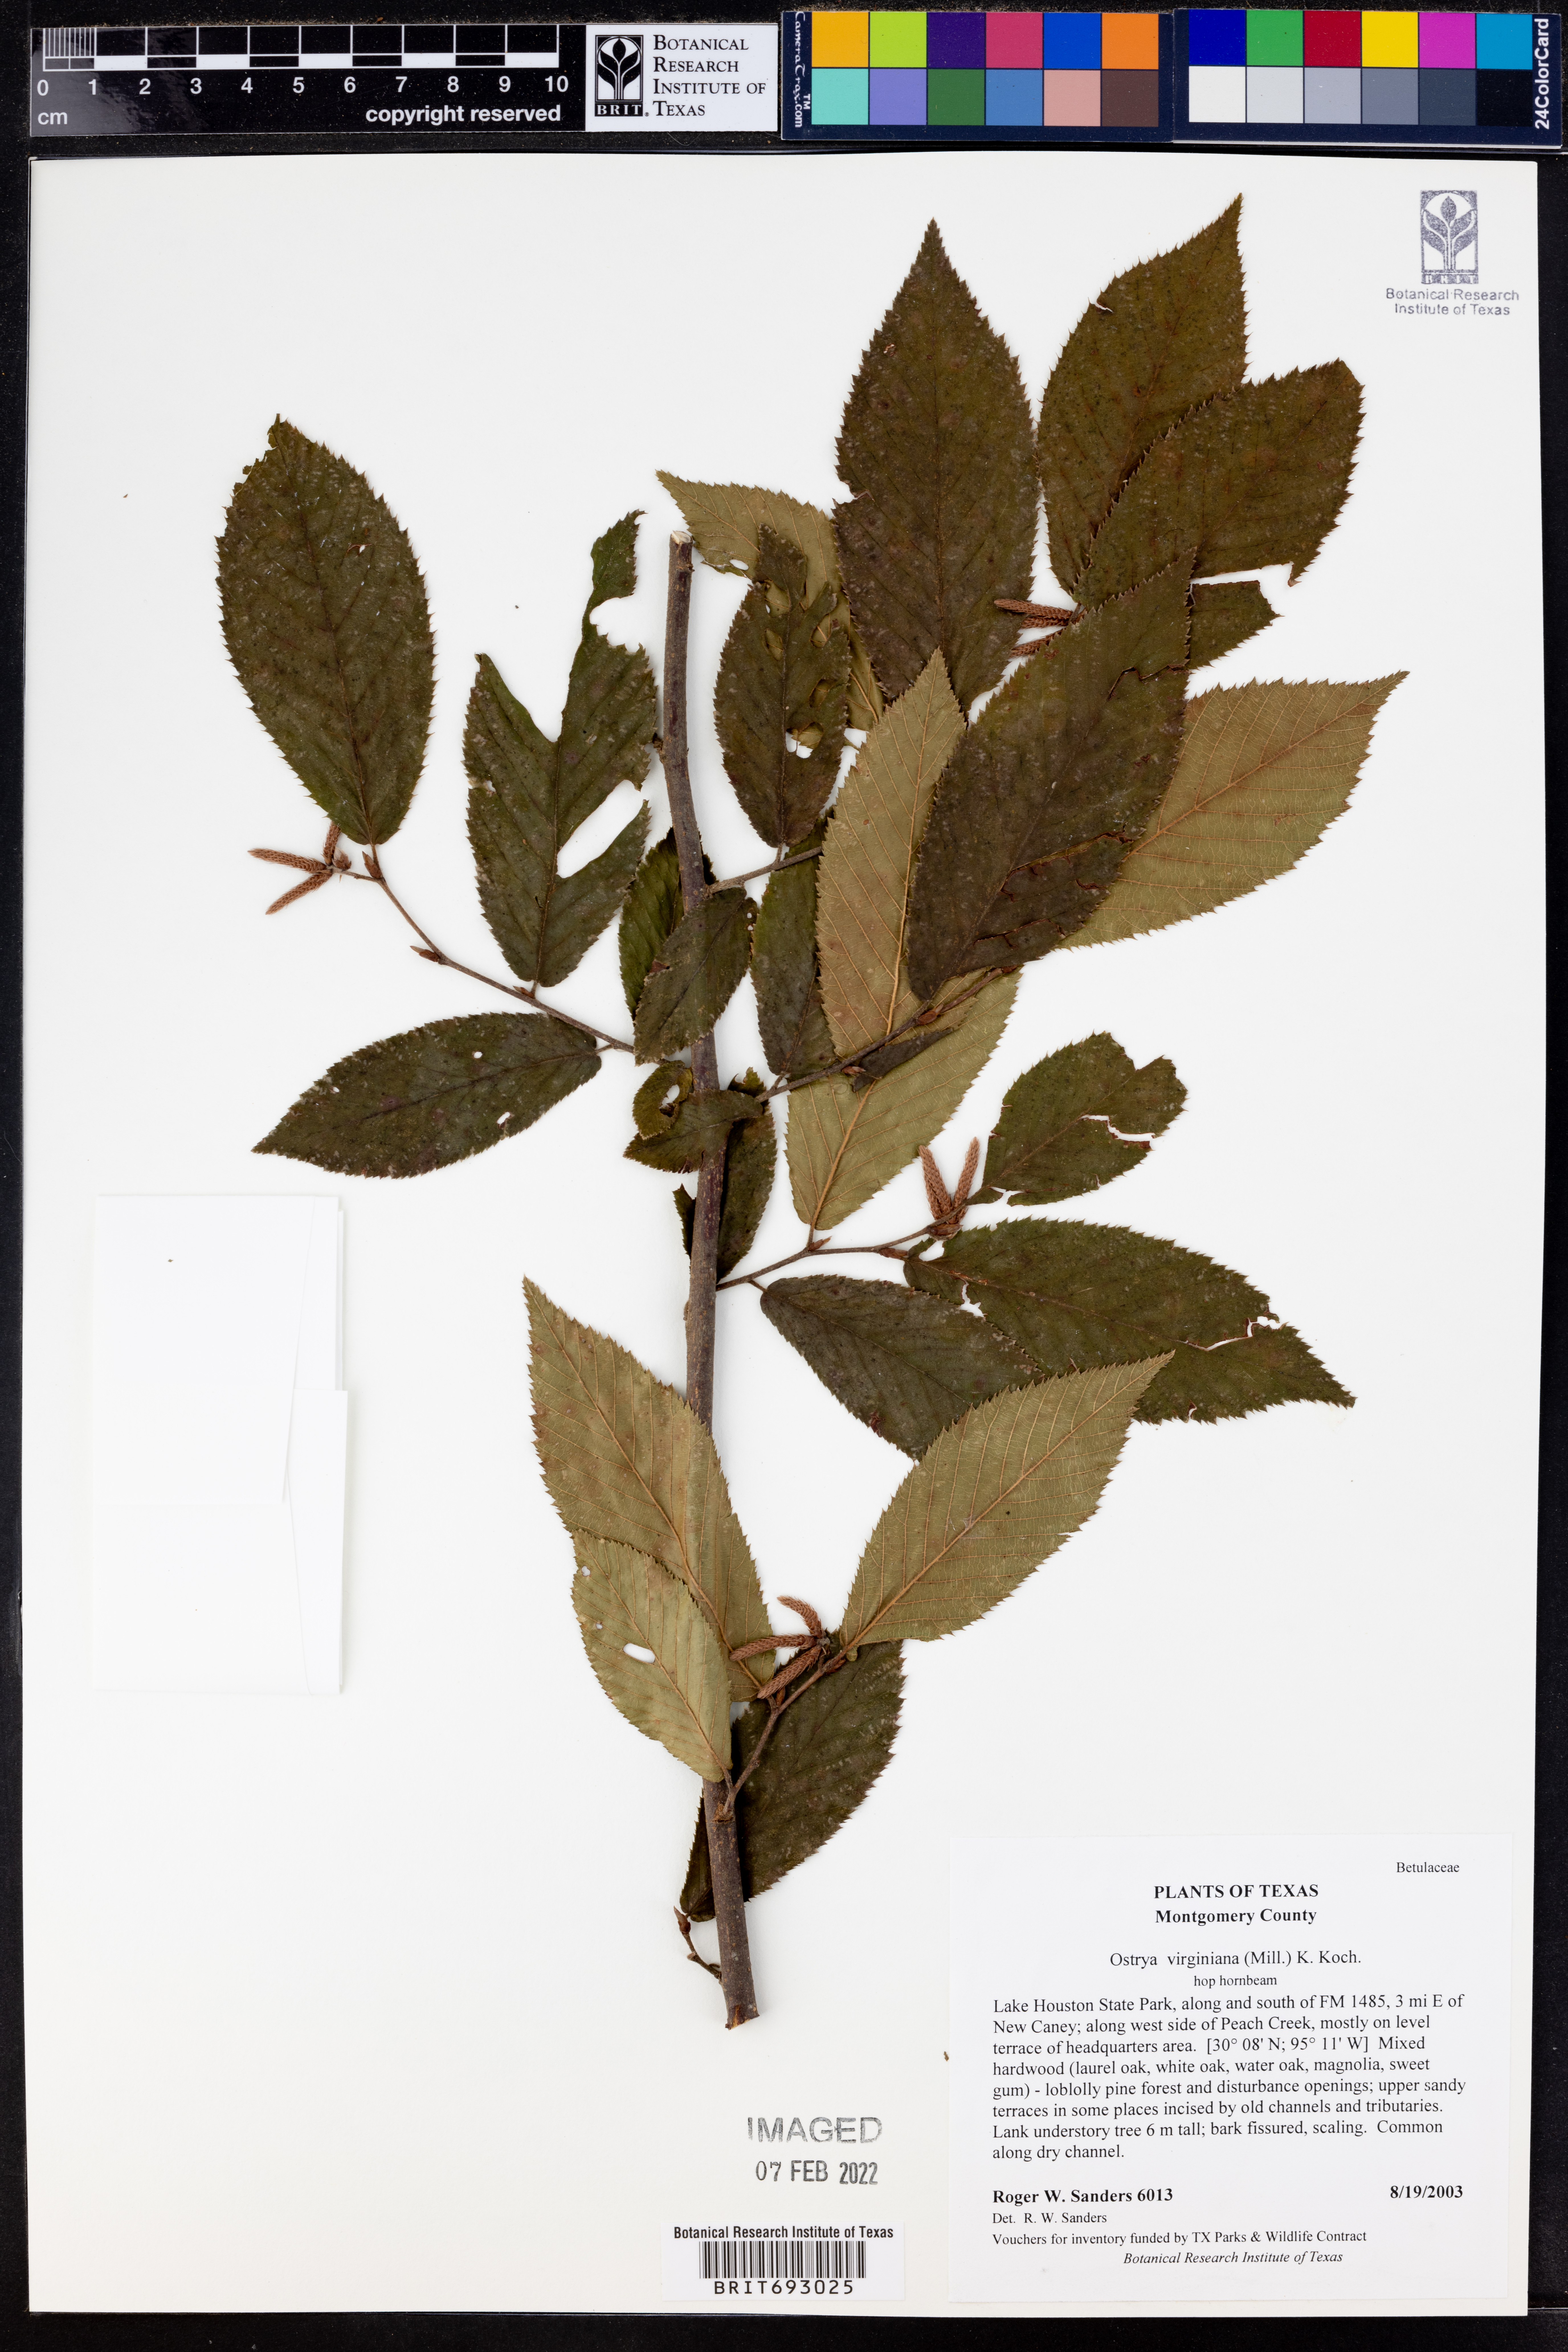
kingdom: Plantae
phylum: Tracheophyta
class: Magnoliopsida
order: Fagales
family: Betulaceae
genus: Ostrya
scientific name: Ostrya virginiana
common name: Ironwood
